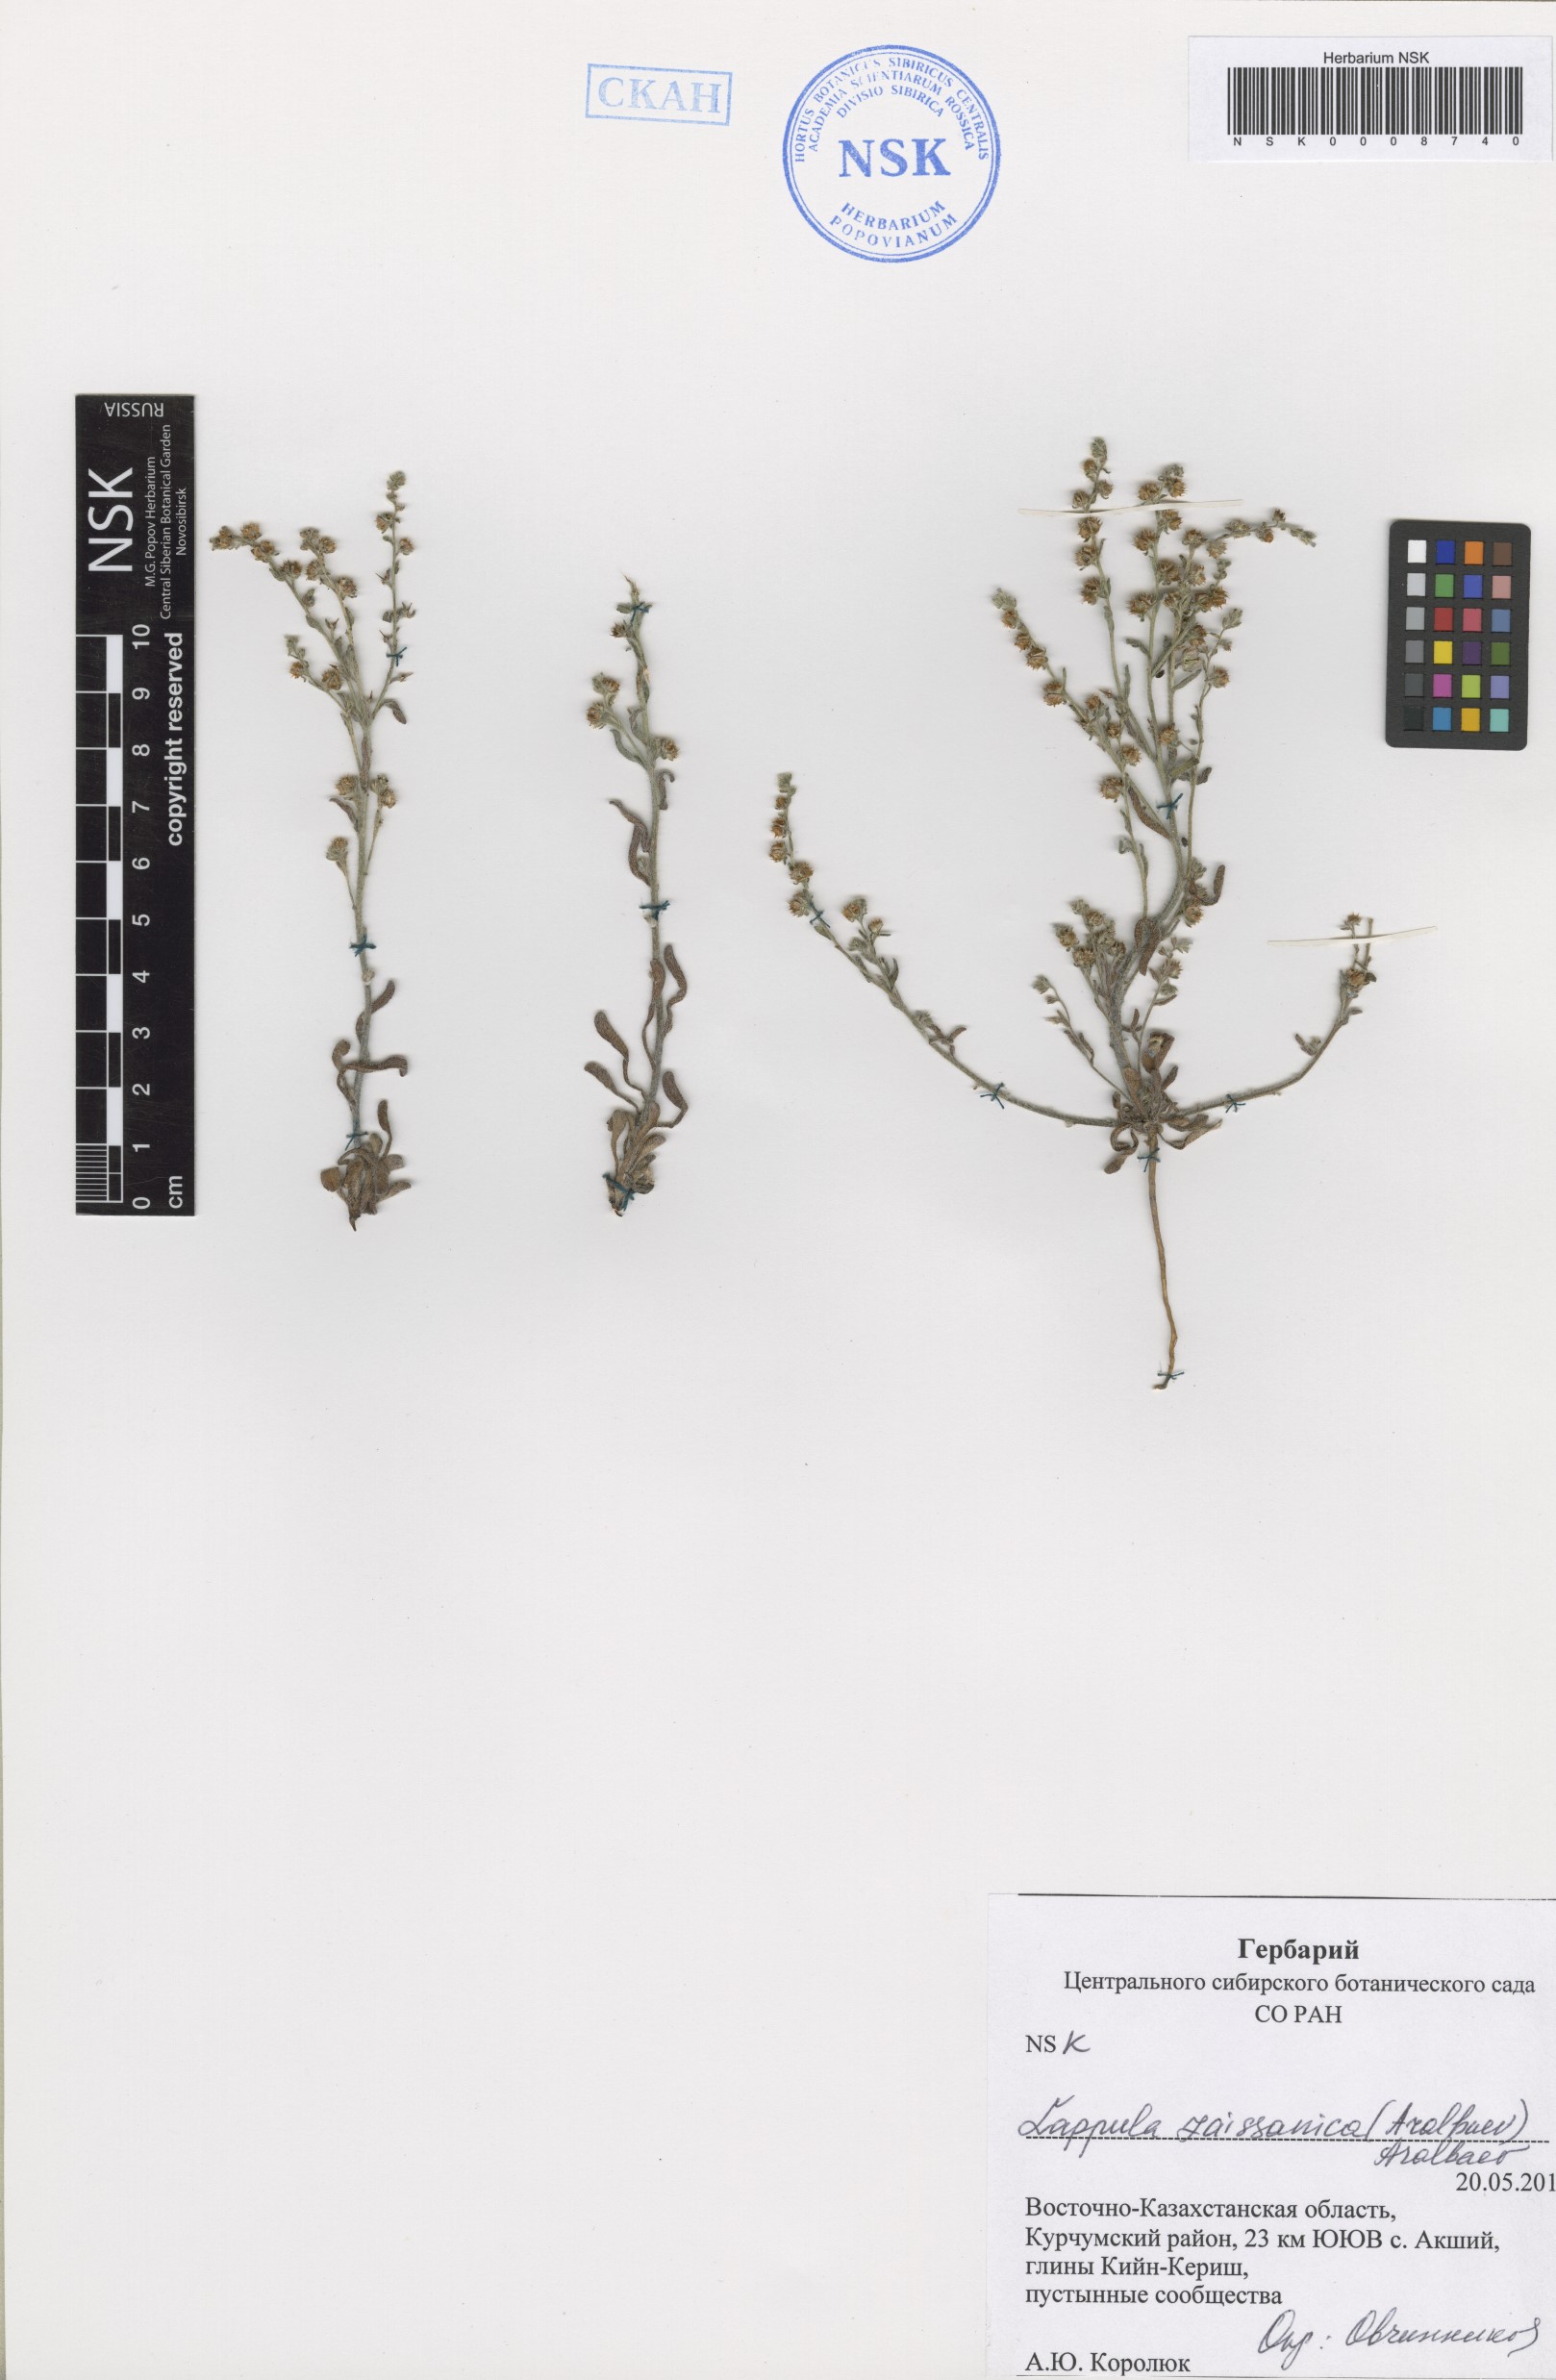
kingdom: Plantae
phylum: Tracheophyta
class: Magnoliopsida
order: Boraginales
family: Boraginaceae
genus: Lappula
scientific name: Lappula zaissanica
